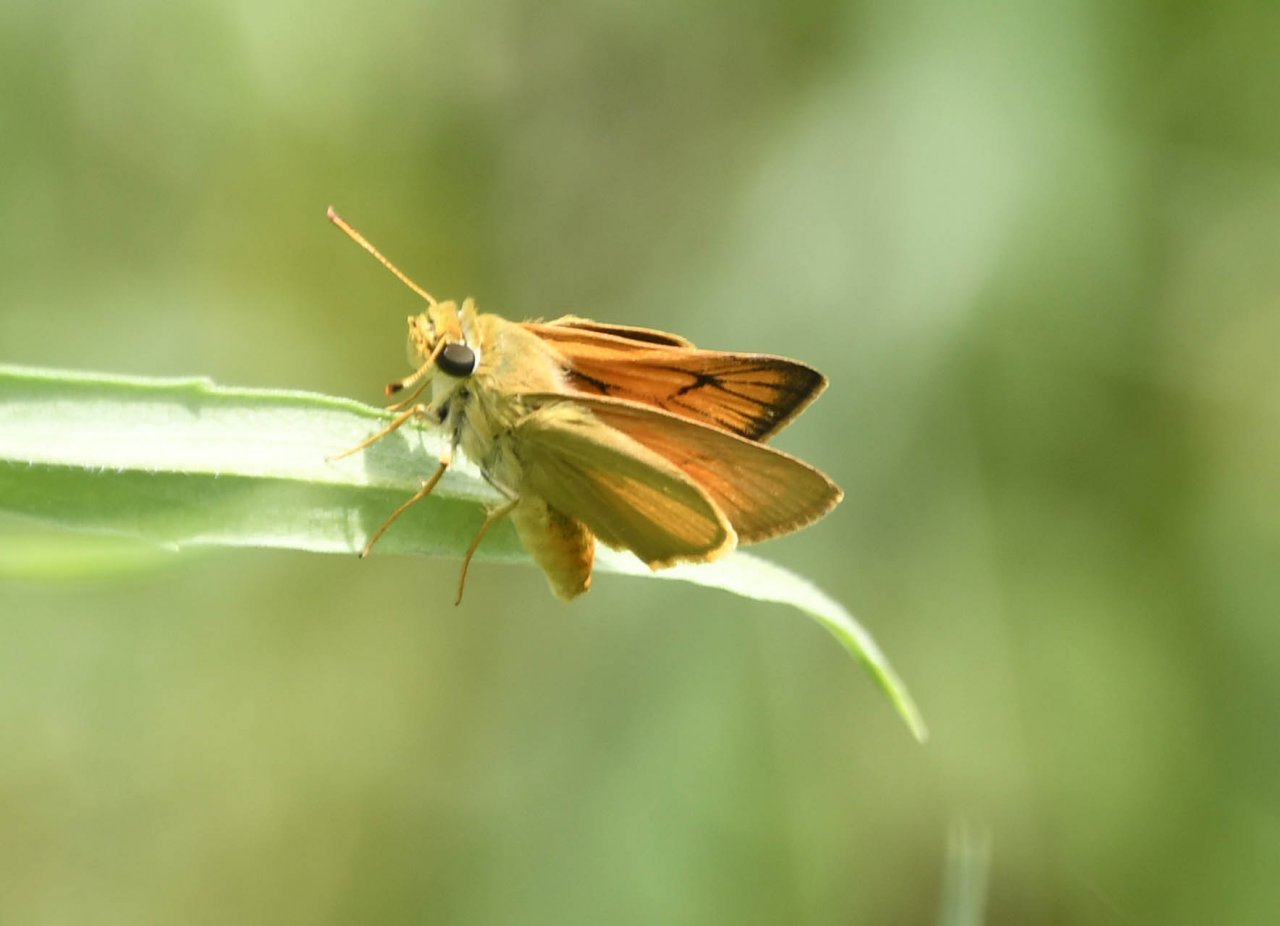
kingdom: Animalia
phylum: Arthropoda
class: Insecta
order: Lepidoptera
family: Hesperiidae
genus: Atrytone
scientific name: Atrytone delaware
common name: Delaware Skipper
